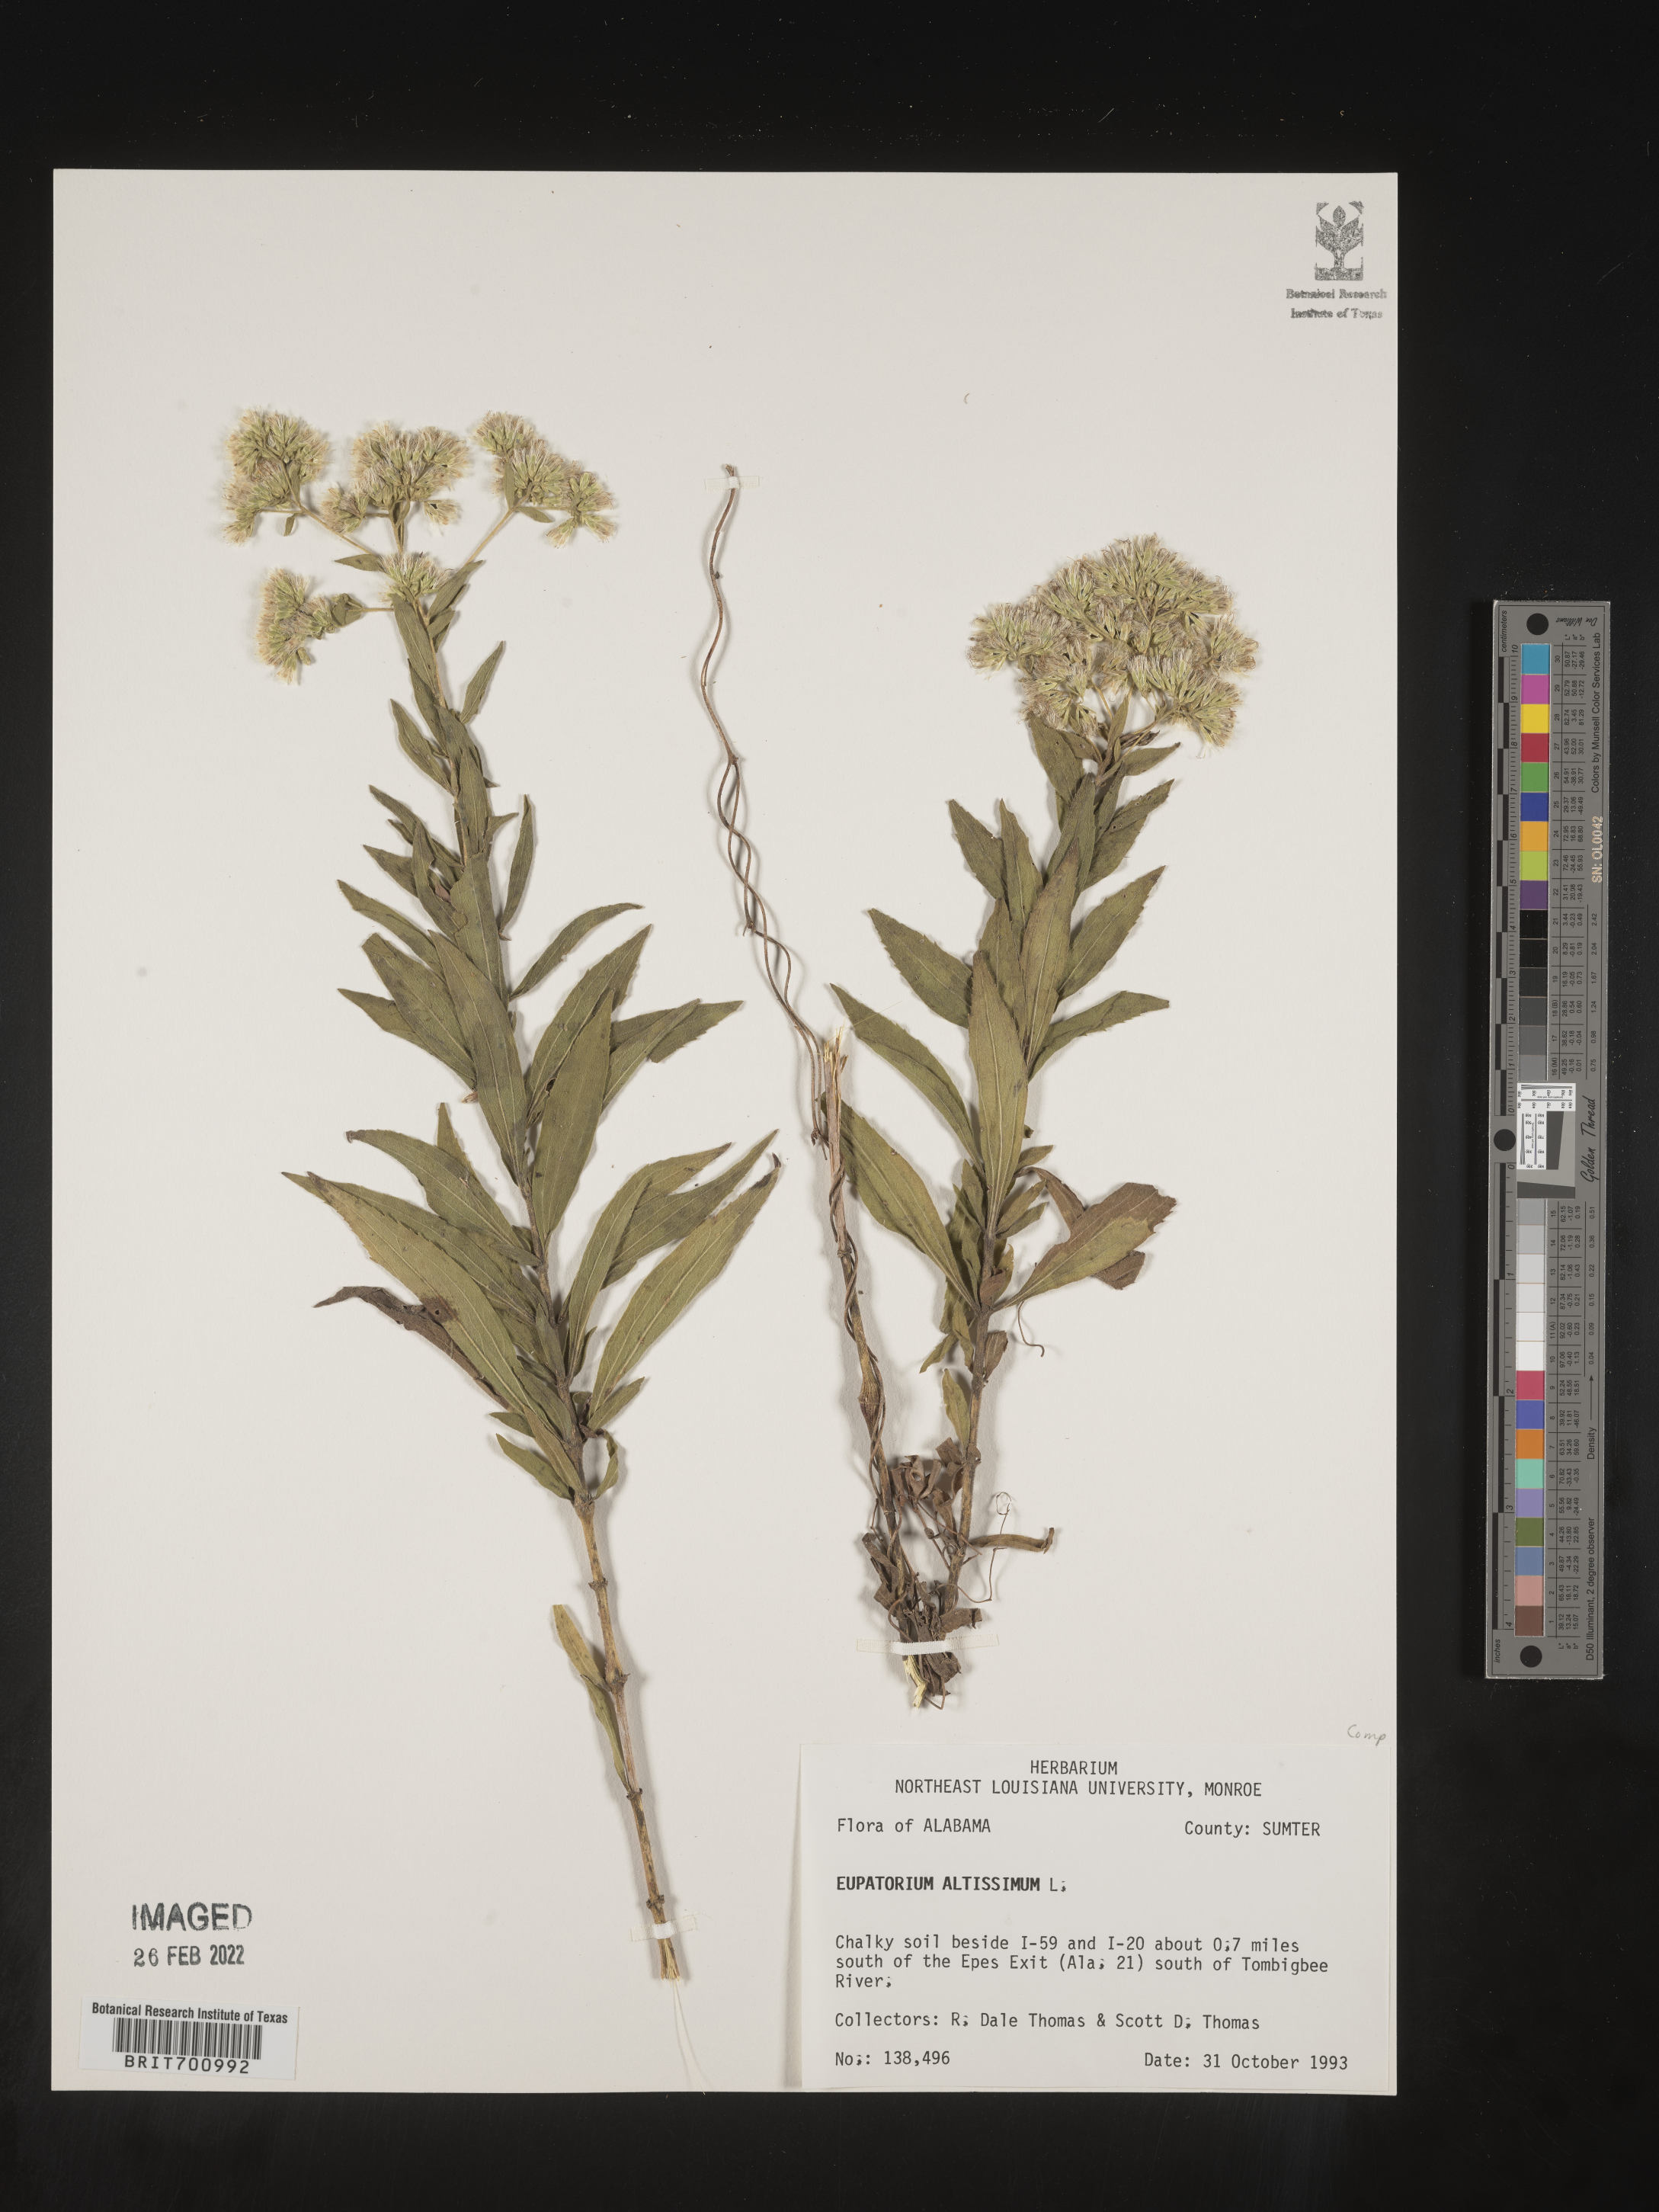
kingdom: Plantae
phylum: Tracheophyta
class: Magnoliopsida
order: Asterales
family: Asteraceae
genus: Eupatorium
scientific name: Eupatorium altissimum
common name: Tall thoroughwort
